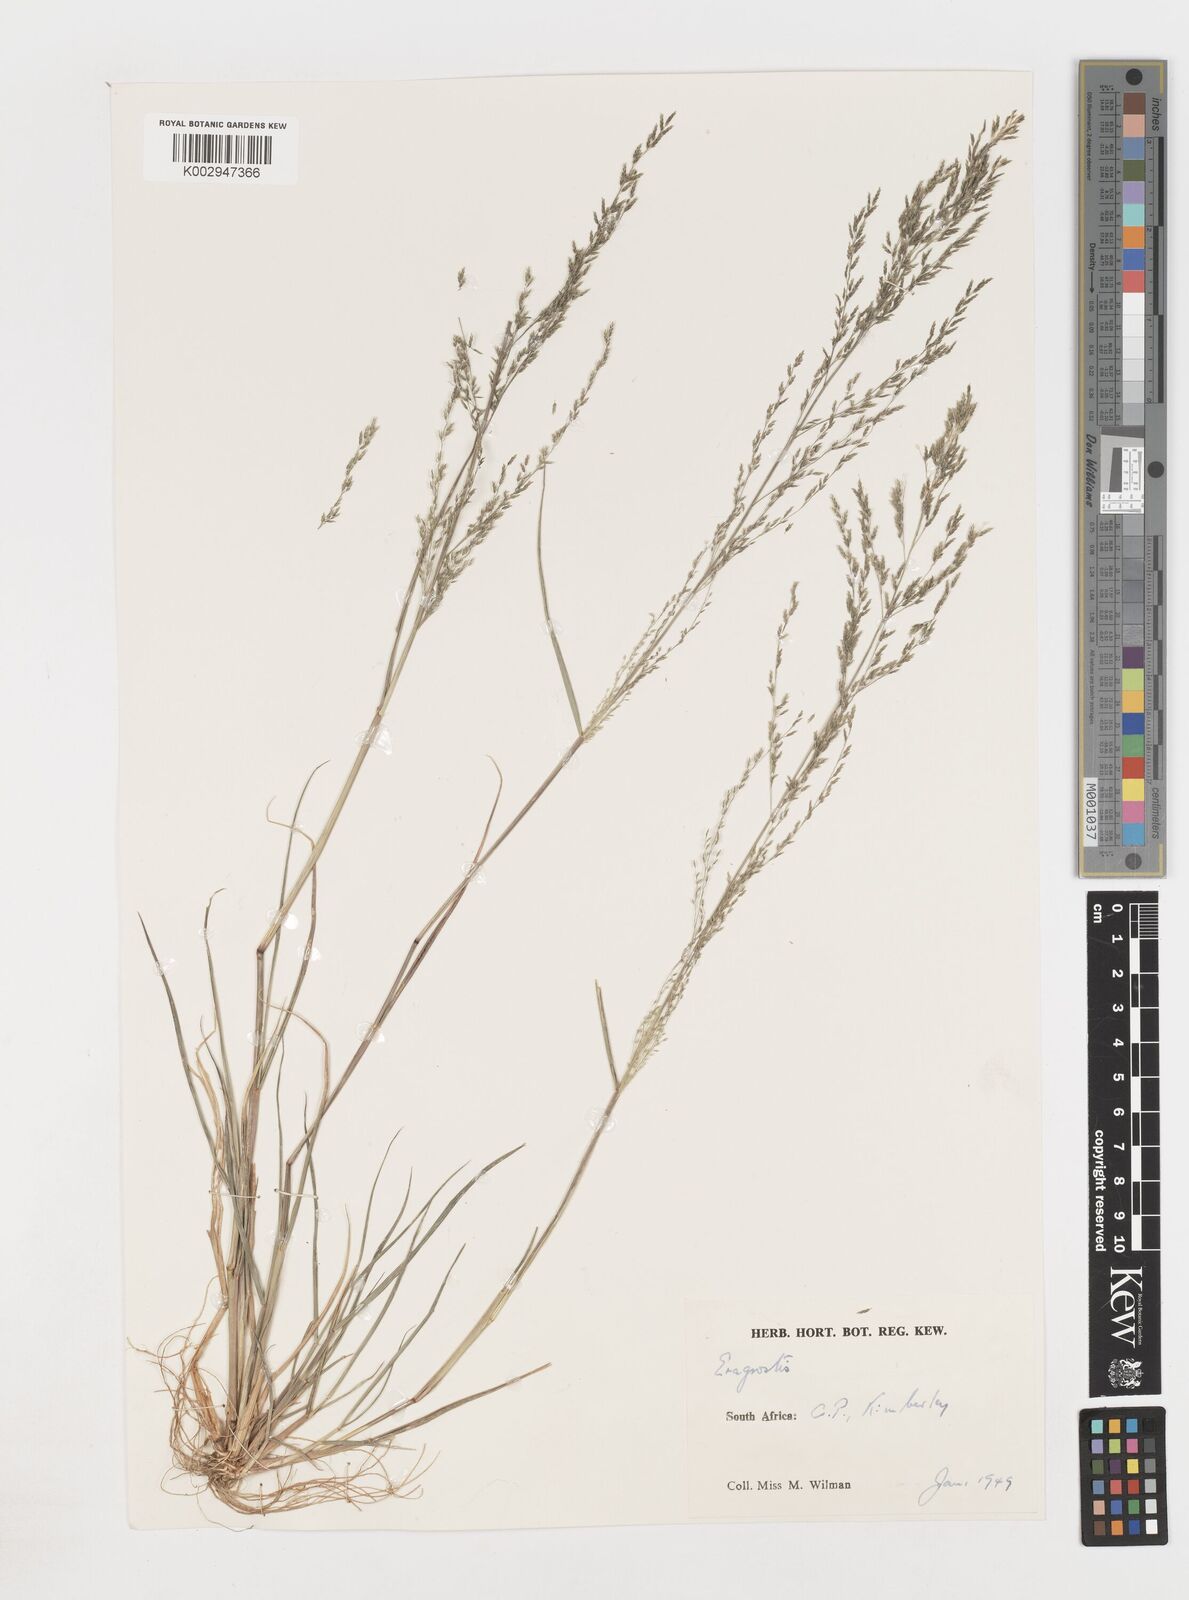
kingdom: Plantae
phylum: Tracheophyta
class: Liliopsida
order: Poales
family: Poaceae
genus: Eragrostis
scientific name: Eragrostis
